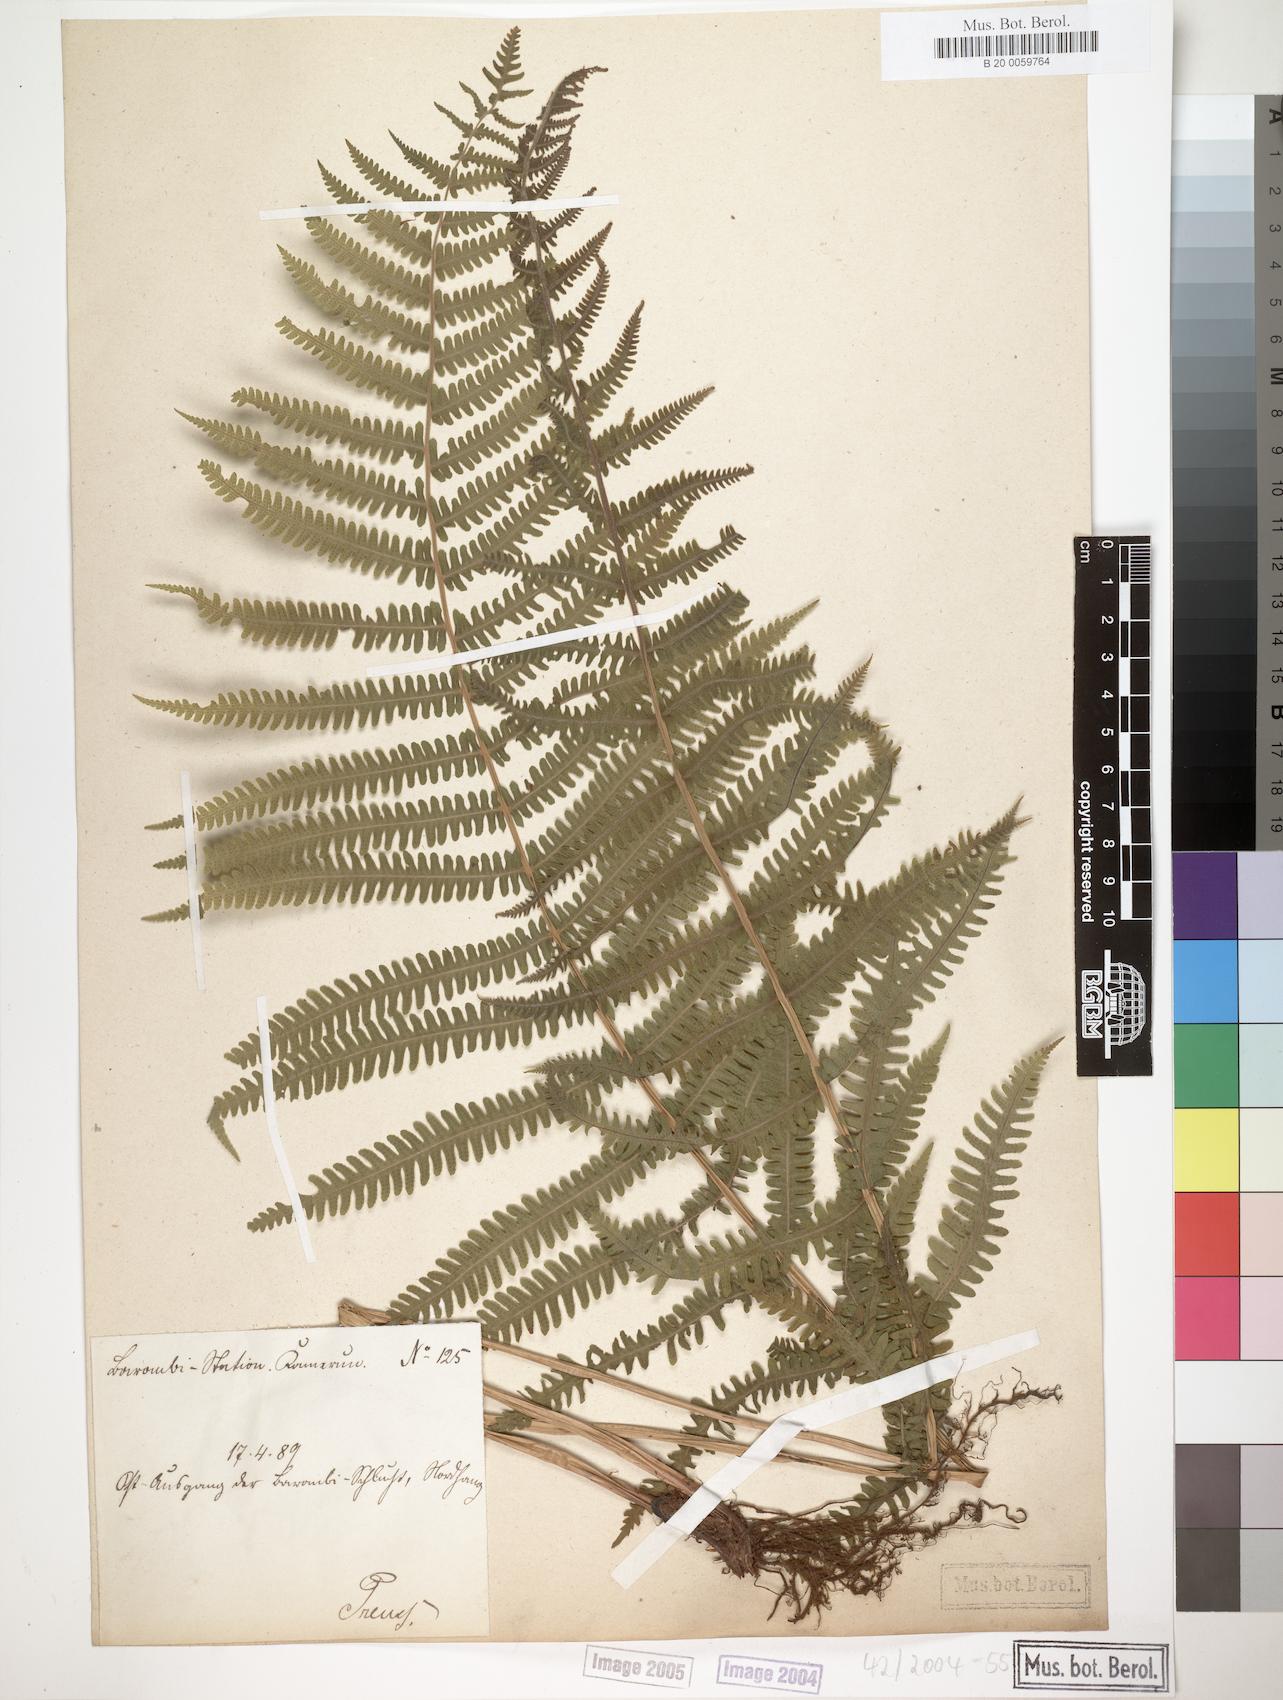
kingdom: Plantae
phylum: Tracheophyta
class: Polypodiopsida
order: Polypodiales
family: Thelypteridaceae
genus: Christella
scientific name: Christella dentata
